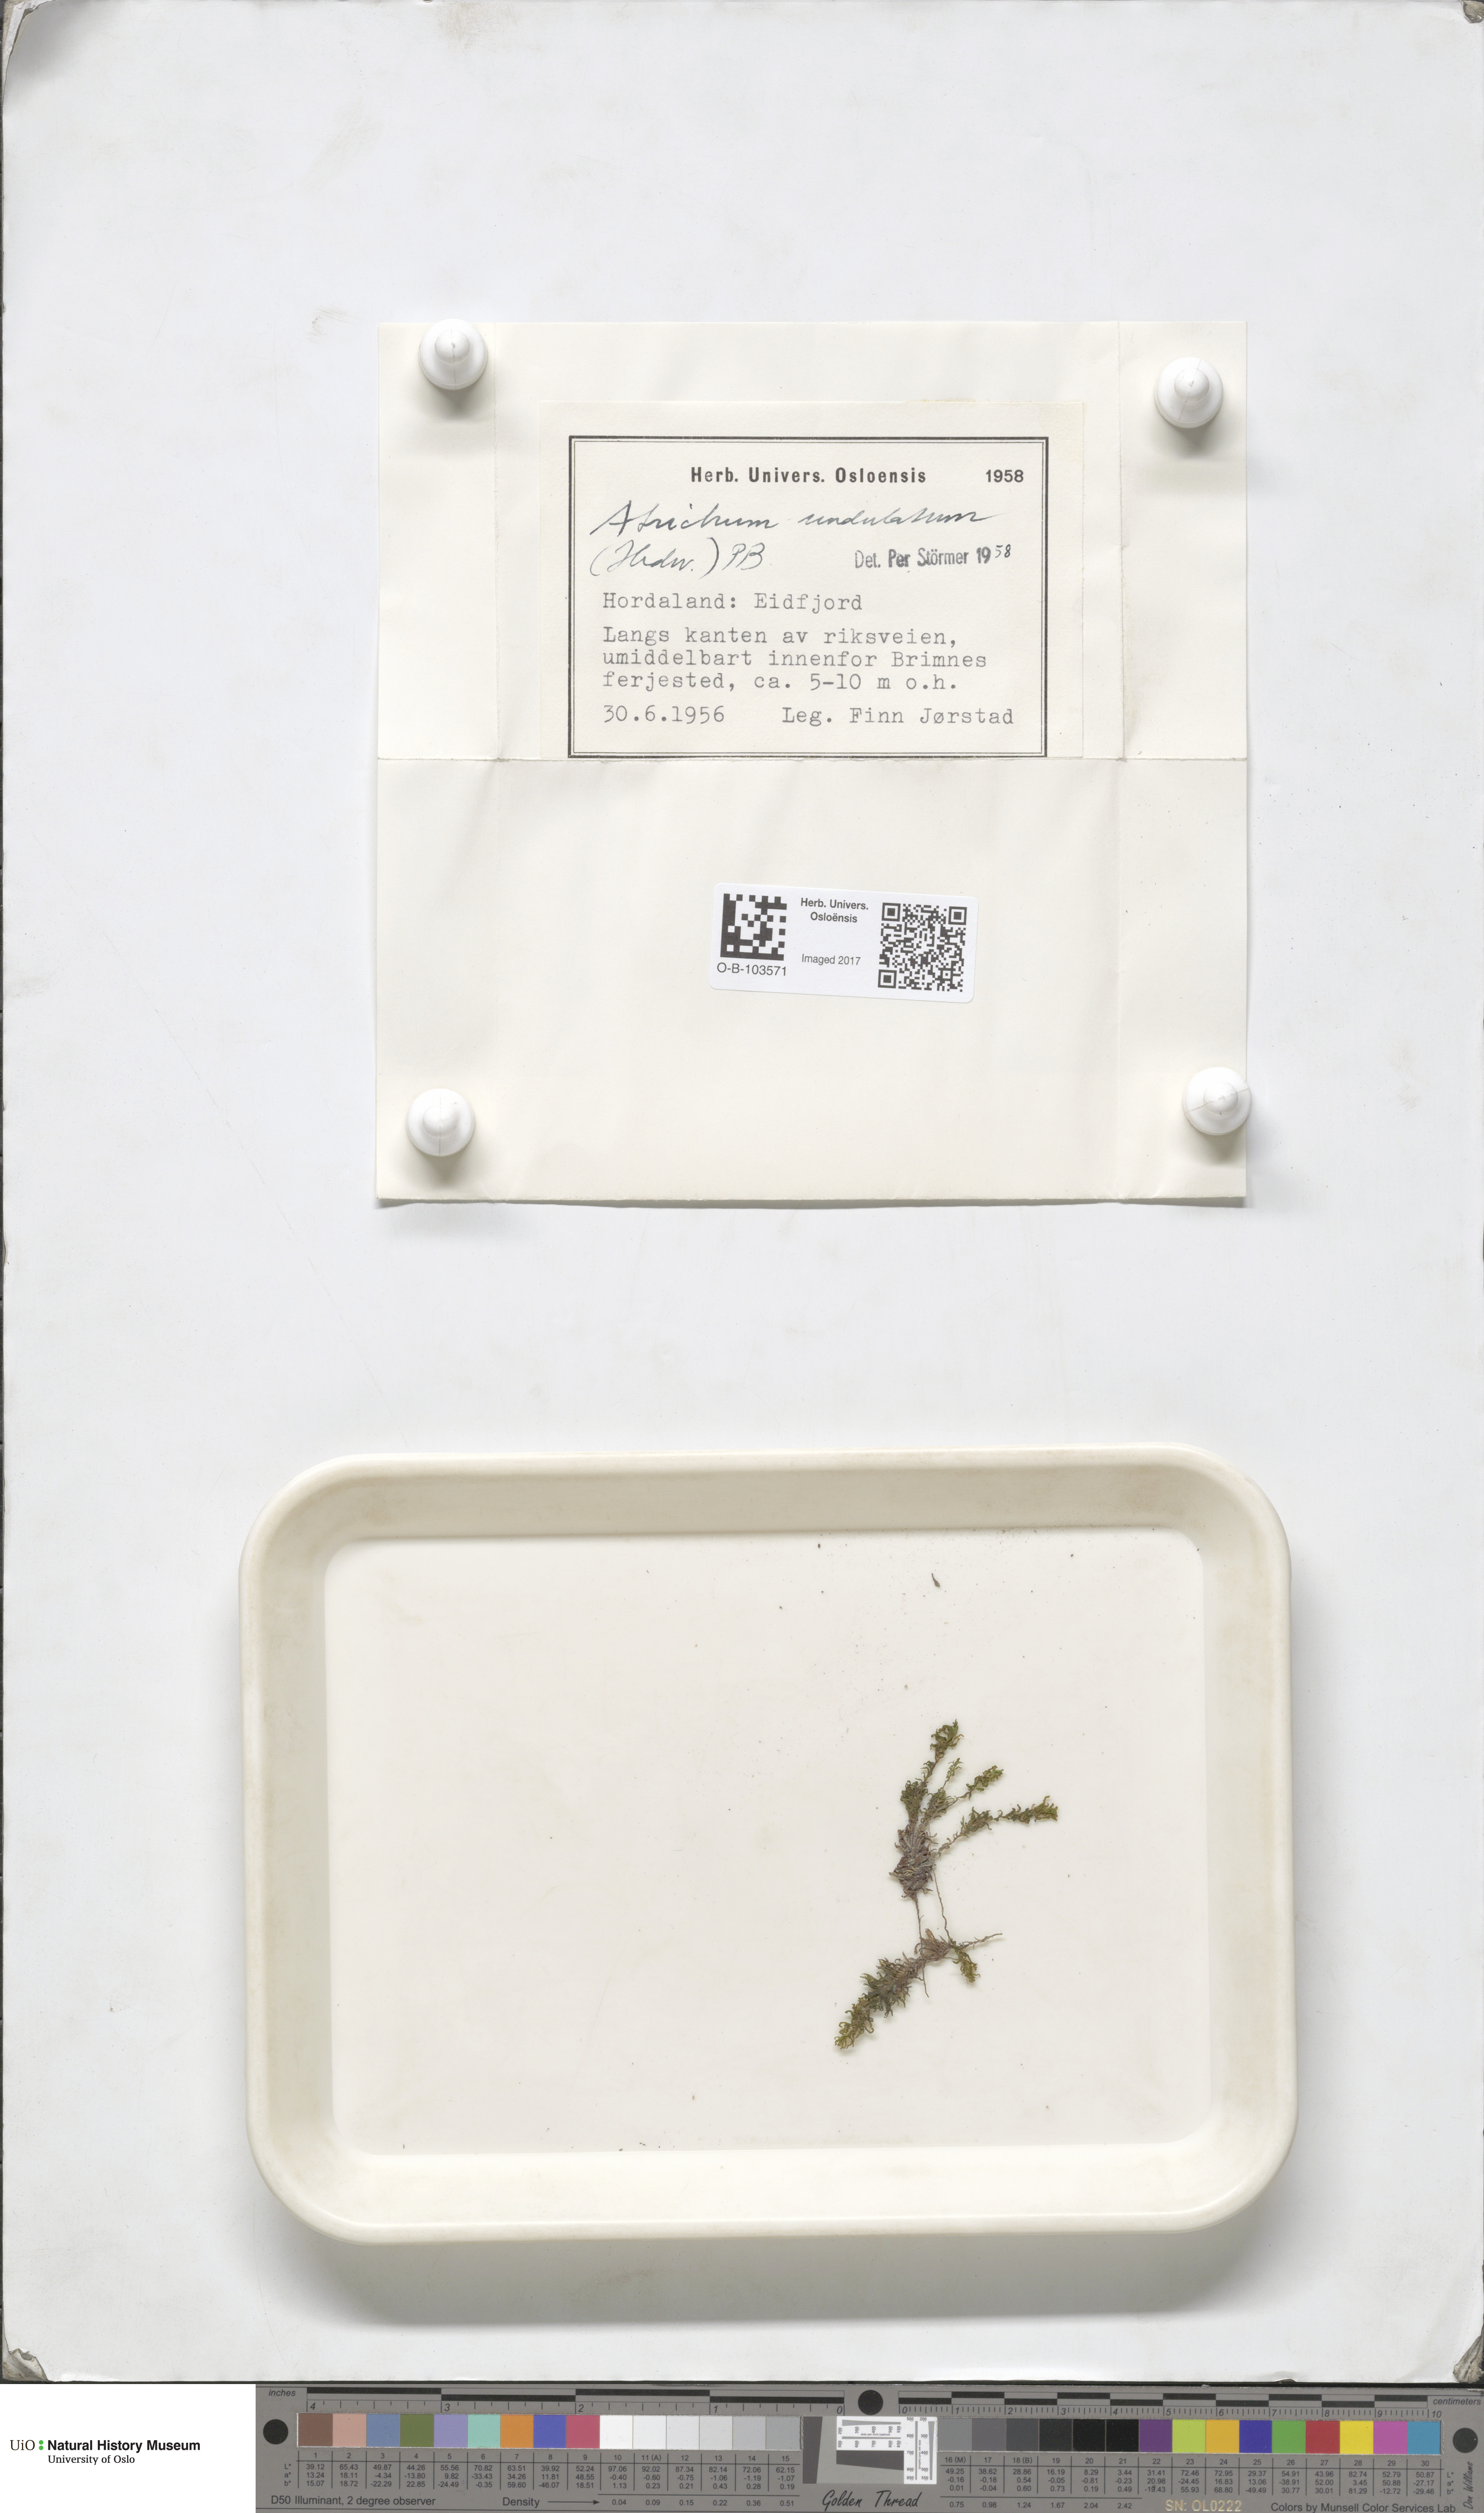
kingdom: Plantae
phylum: Bryophyta
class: Polytrichopsida
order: Polytrichales
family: Polytrichaceae
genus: Atrichum
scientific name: Atrichum undulatum
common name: Common smoothcap
